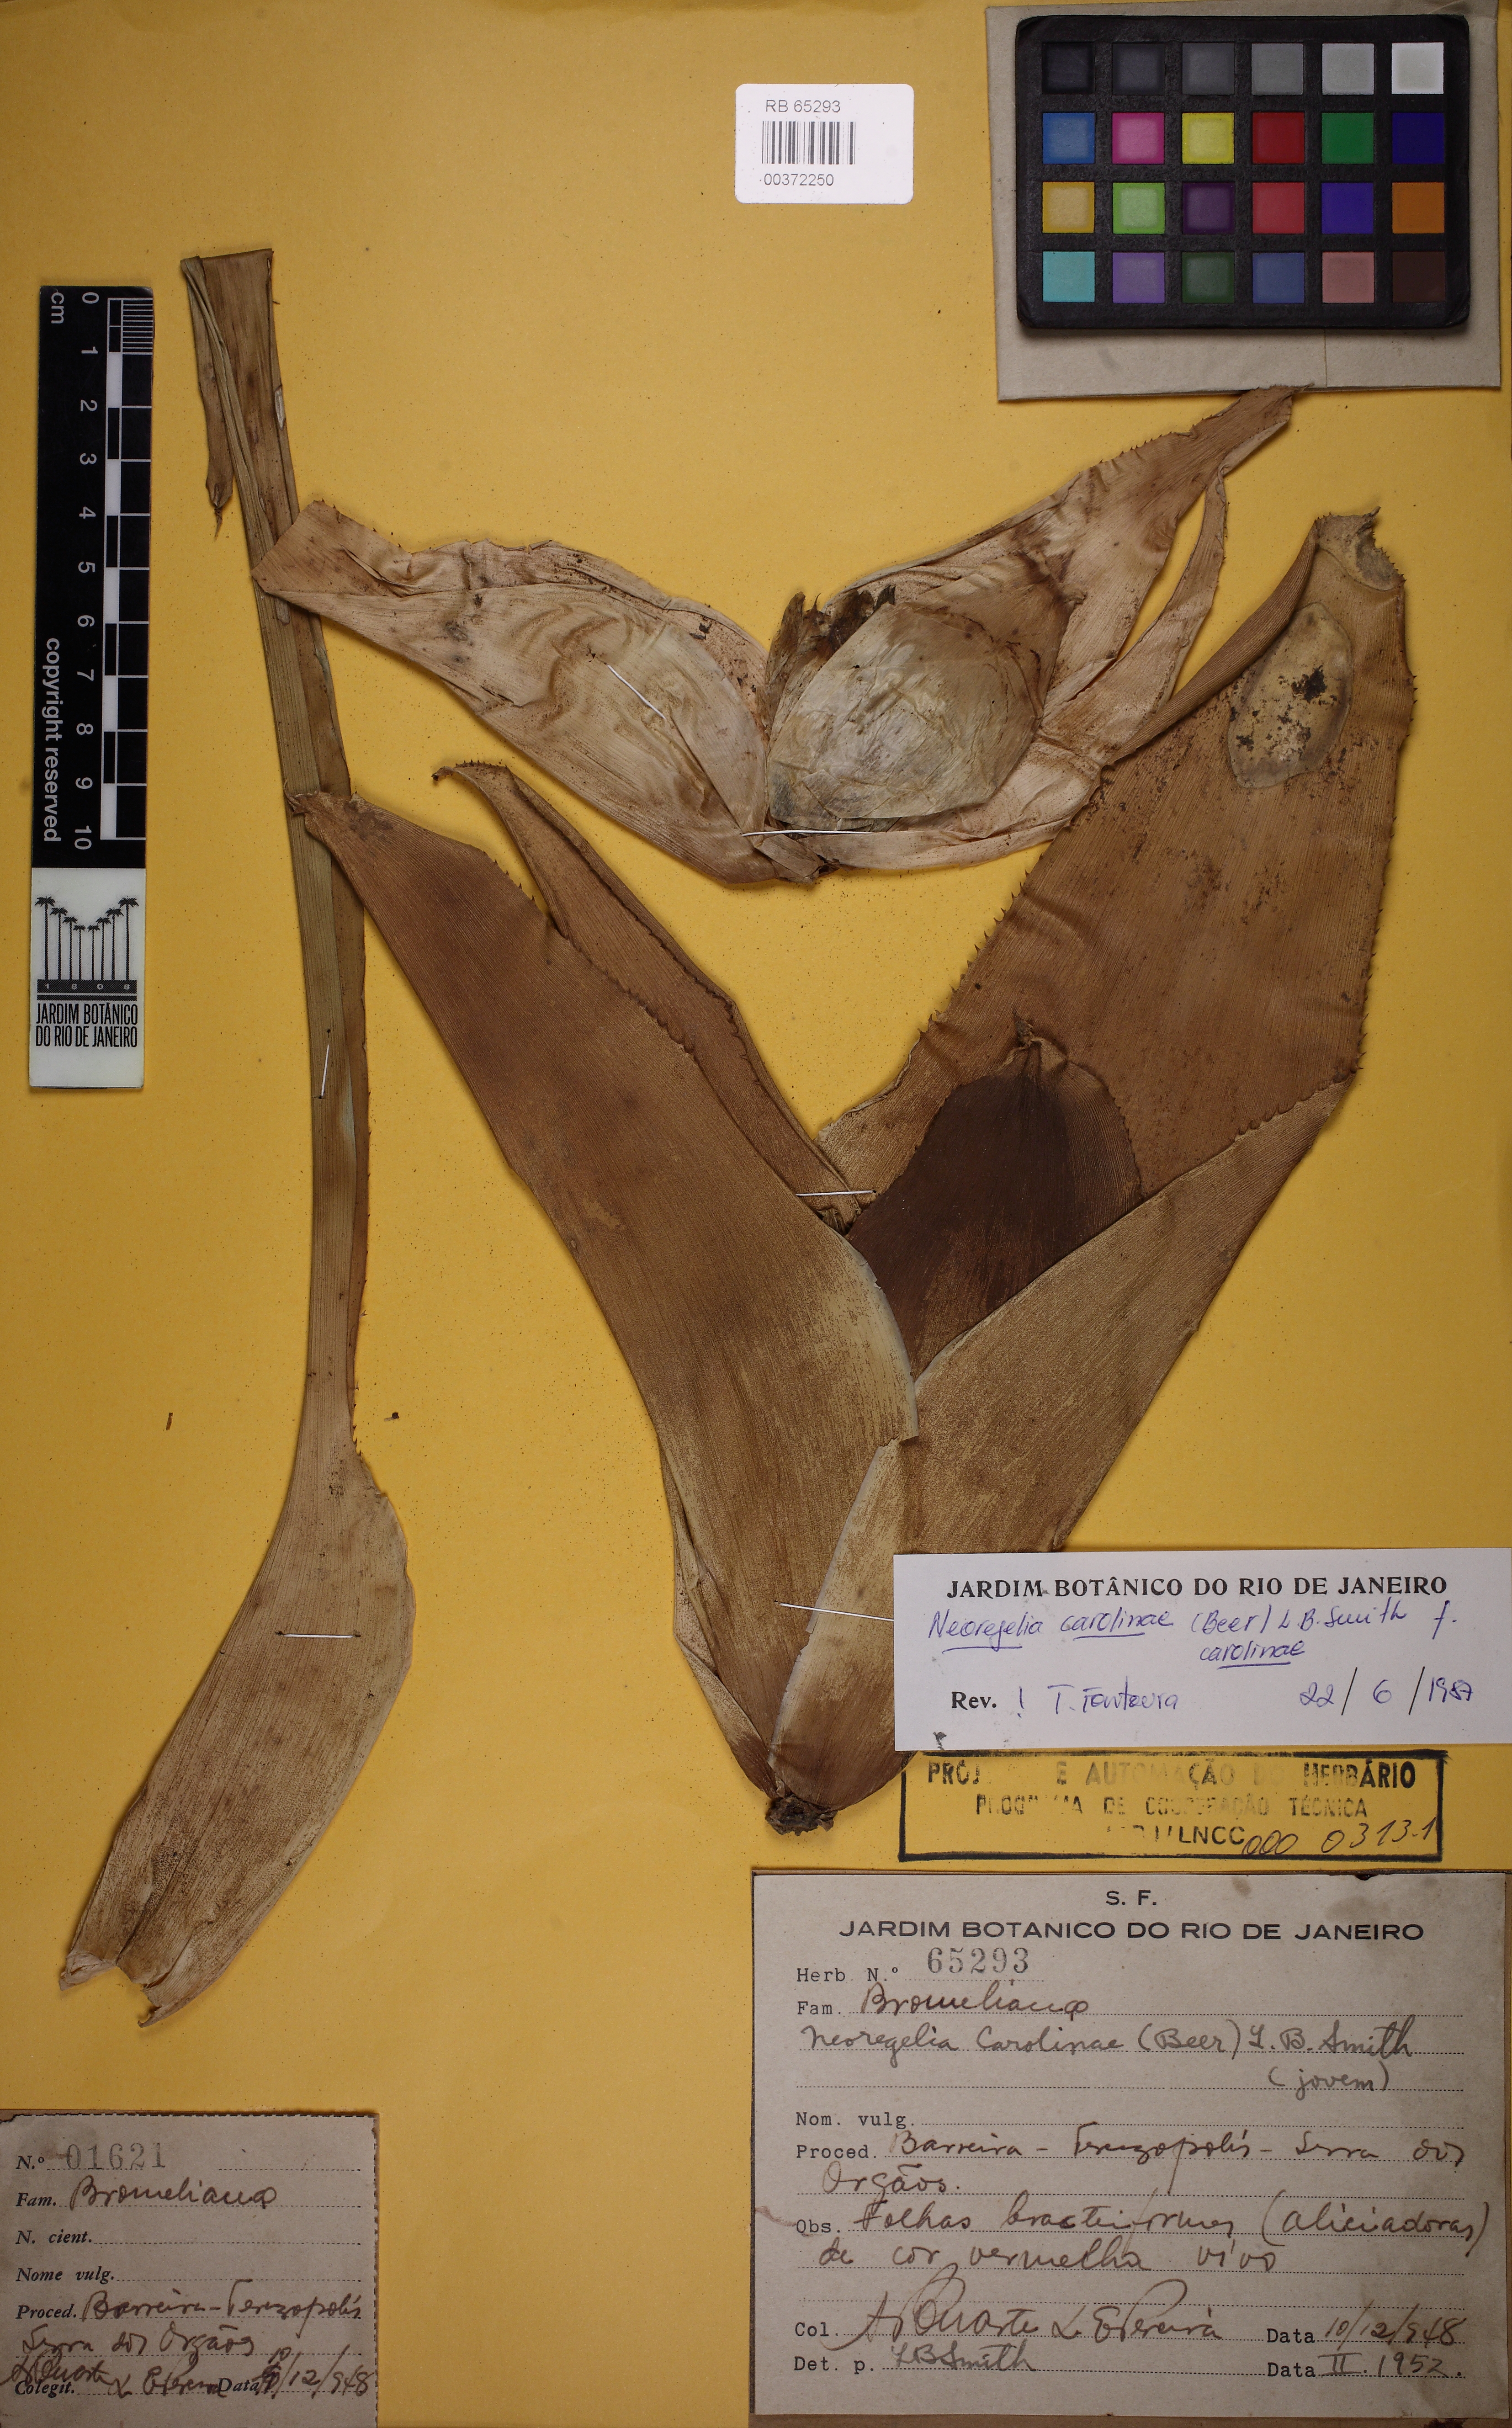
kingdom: Plantae
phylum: Tracheophyta
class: Liliopsida
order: Poales
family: Bromeliaceae
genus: Neoregelia
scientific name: Neoregelia carolinae
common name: Blushing bromeliad
